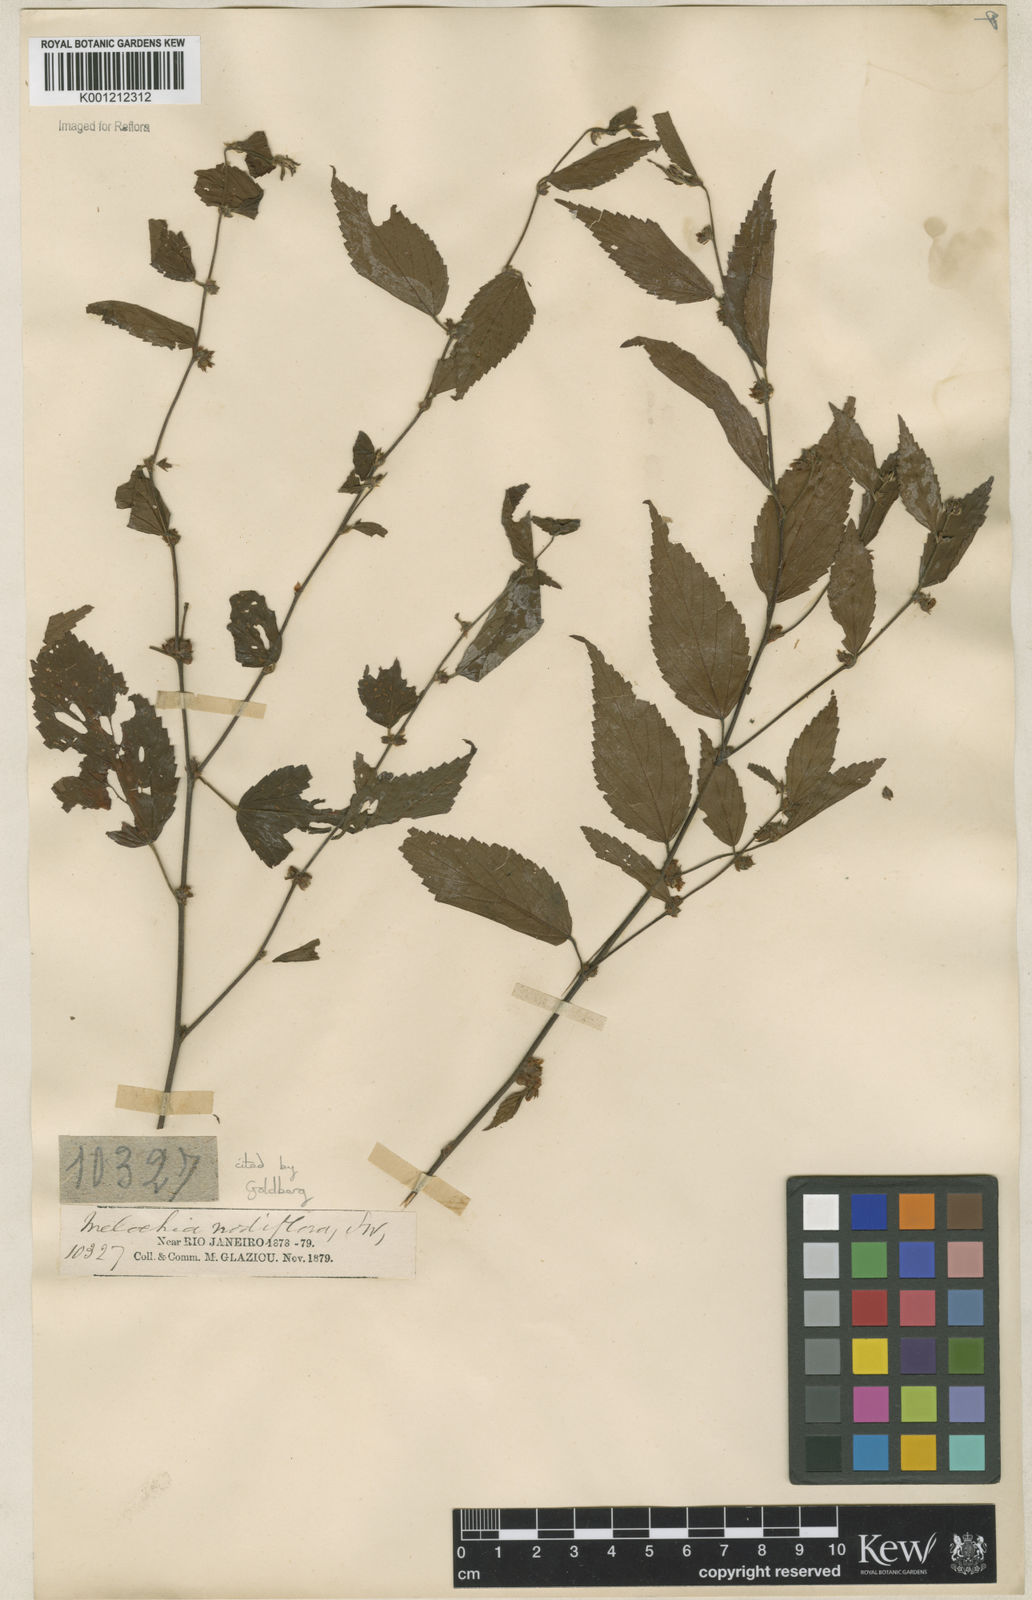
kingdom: Plantae
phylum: Tracheophyta
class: Magnoliopsida
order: Malvales
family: Malvaceae
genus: Melochia
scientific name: Melochia nodiflora
